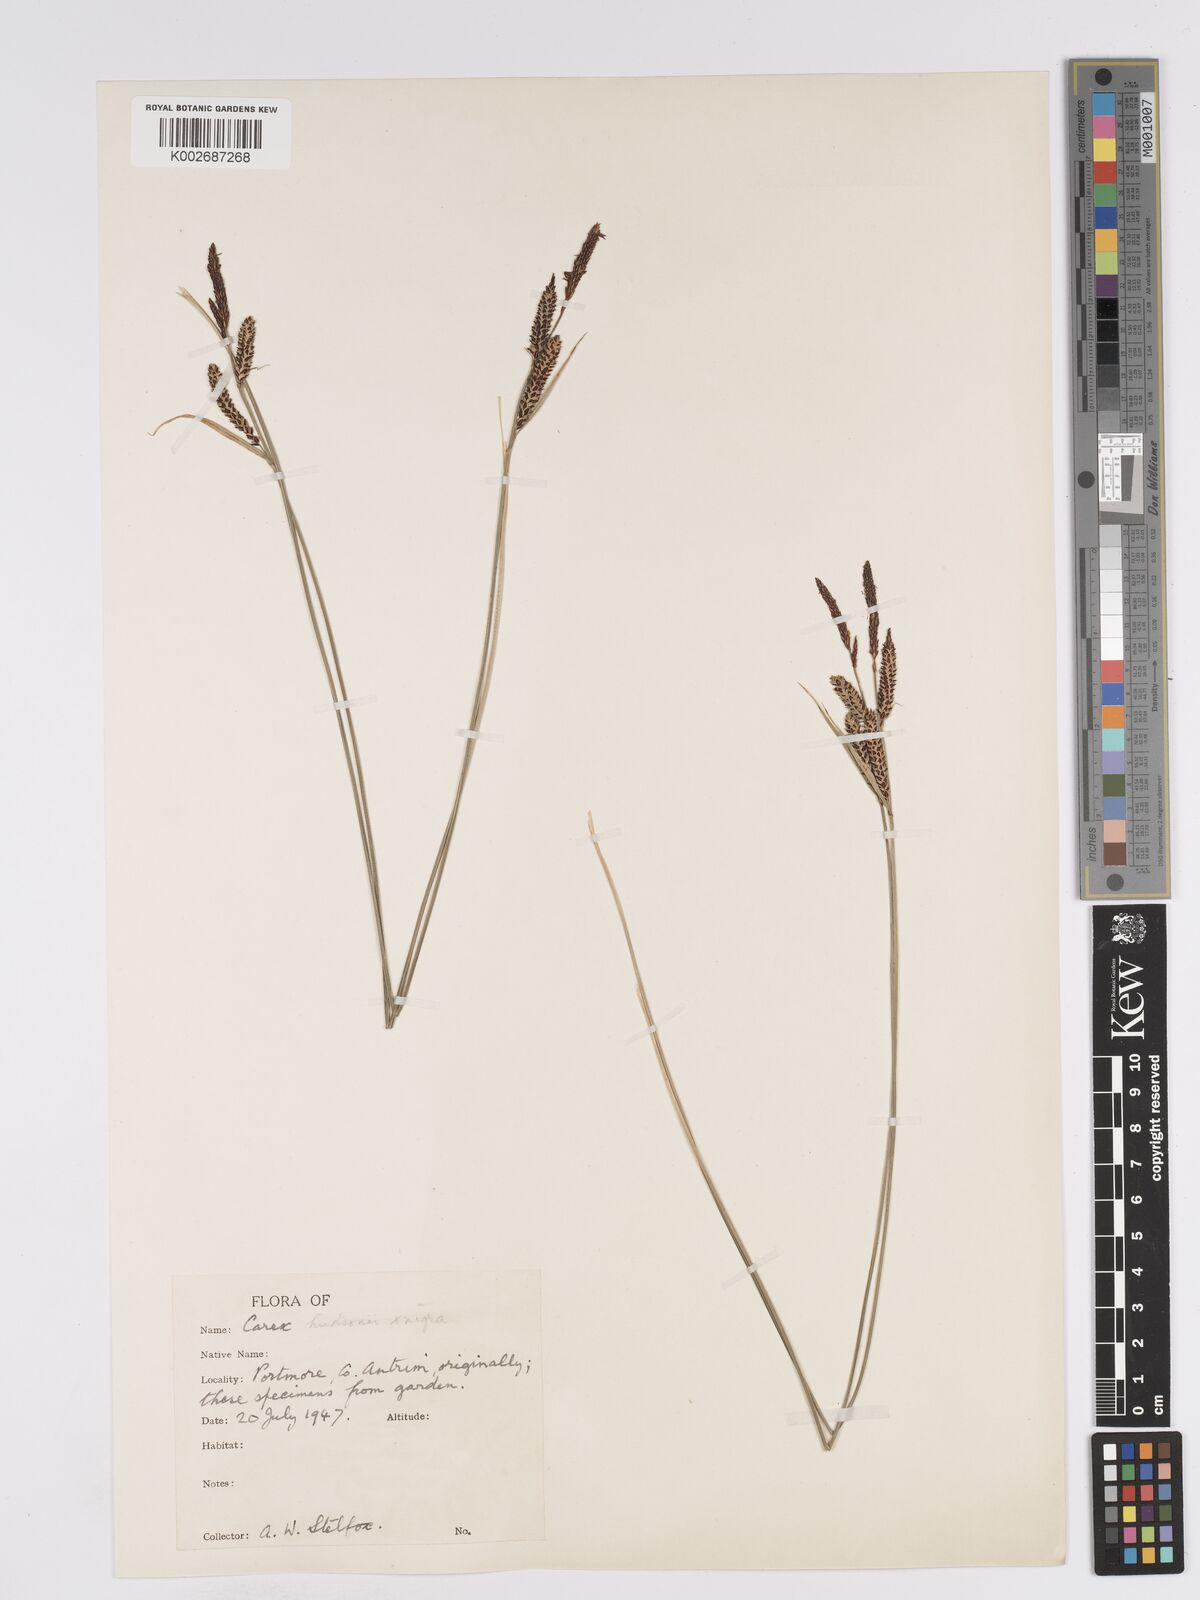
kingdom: Plantae
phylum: Tracheophyta
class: Liliopsida
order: Poales
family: Cyperaceae
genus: Carex
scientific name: Carex nigra
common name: Common sedge
